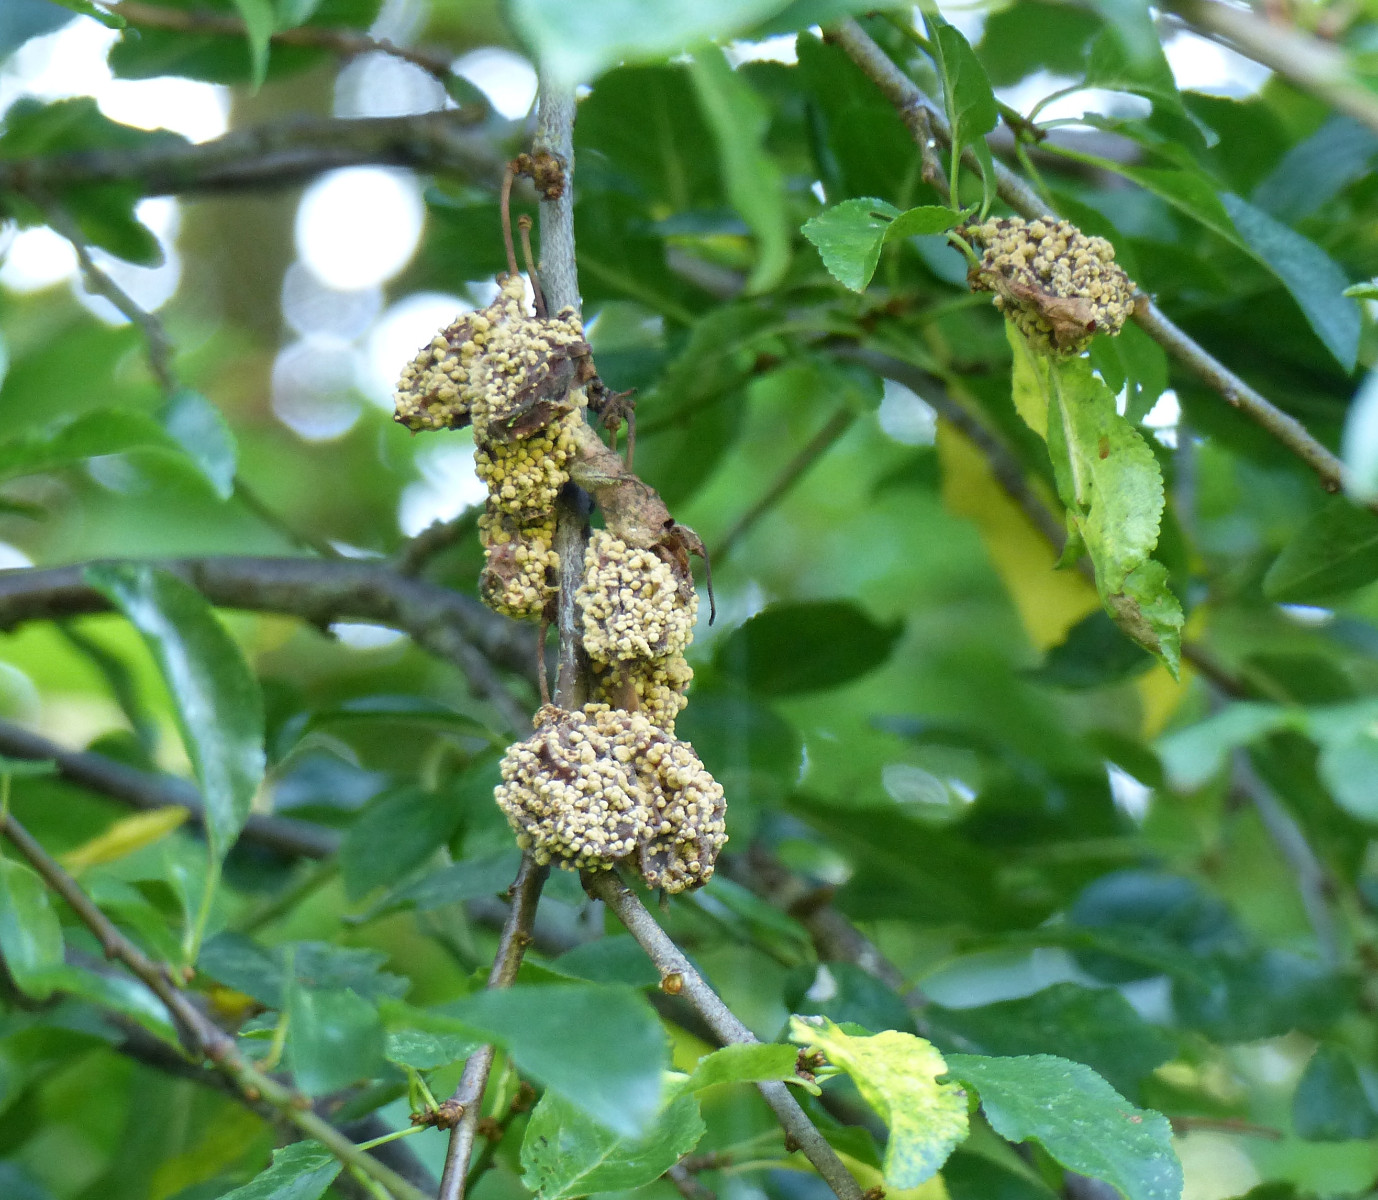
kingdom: Fungi
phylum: Ascomycota
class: Leotiomycetes
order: Helotiales
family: Sclerotiniaceae
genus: Monilinia
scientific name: Monilinia laxa
